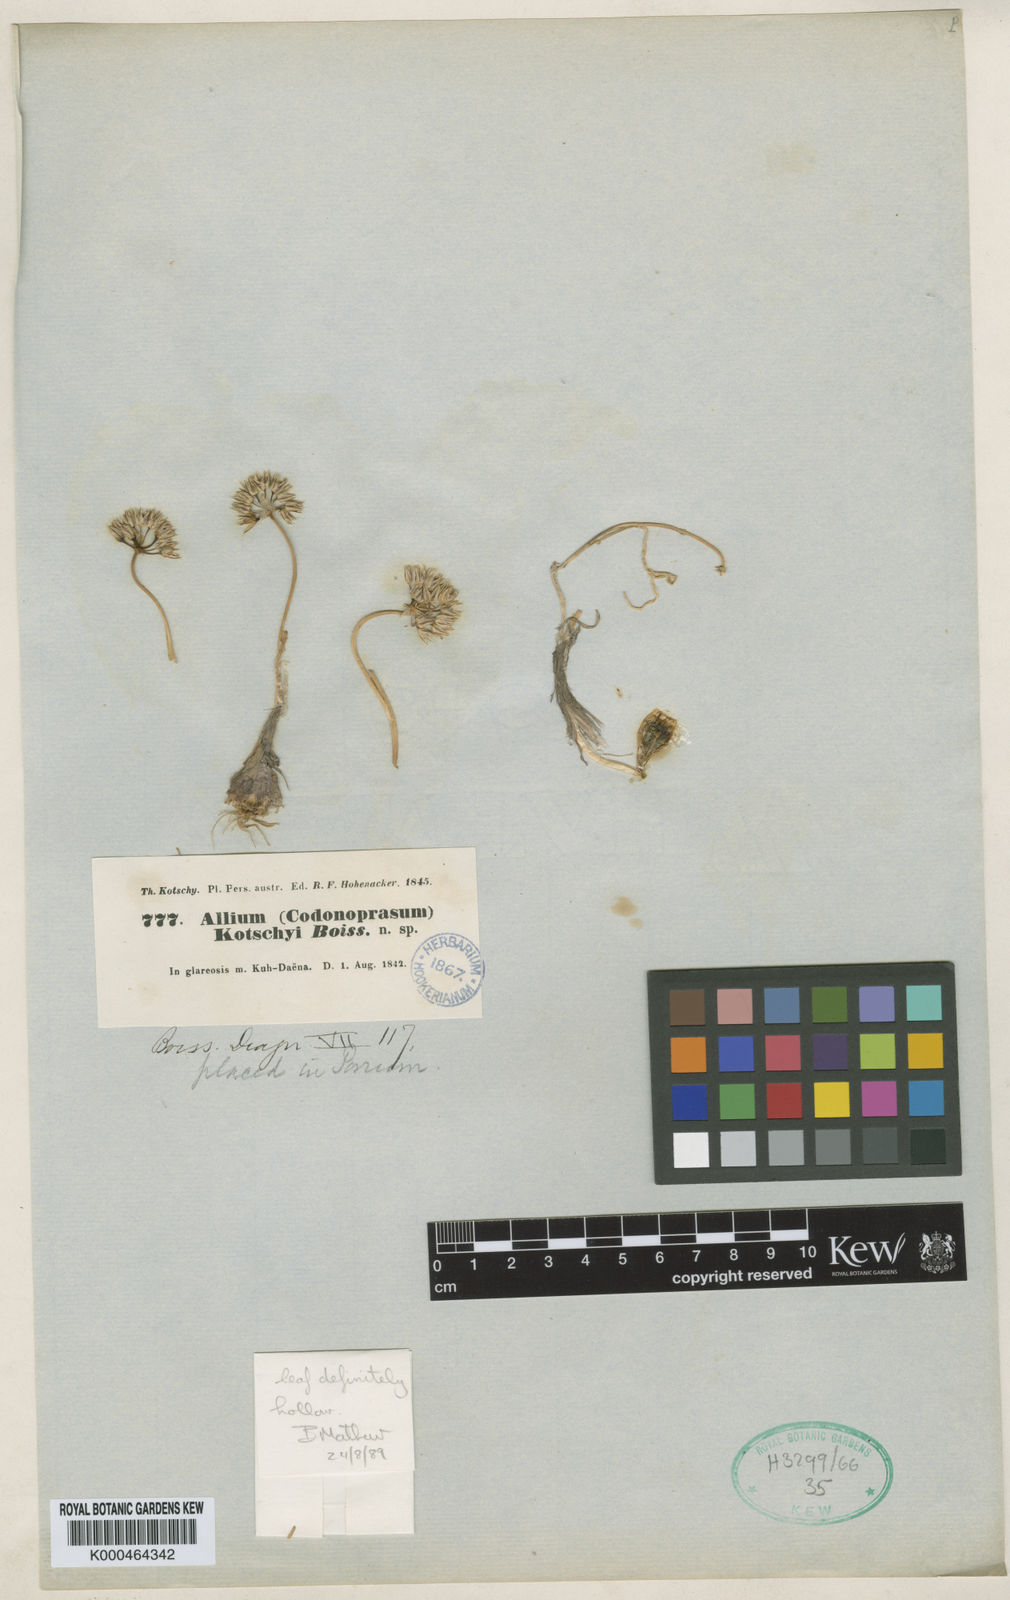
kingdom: Plantae
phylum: Tracheophyta
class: Liliopsida
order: Asparagales
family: Amaryllidaceae
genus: Allium
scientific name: Allium kotschyi
